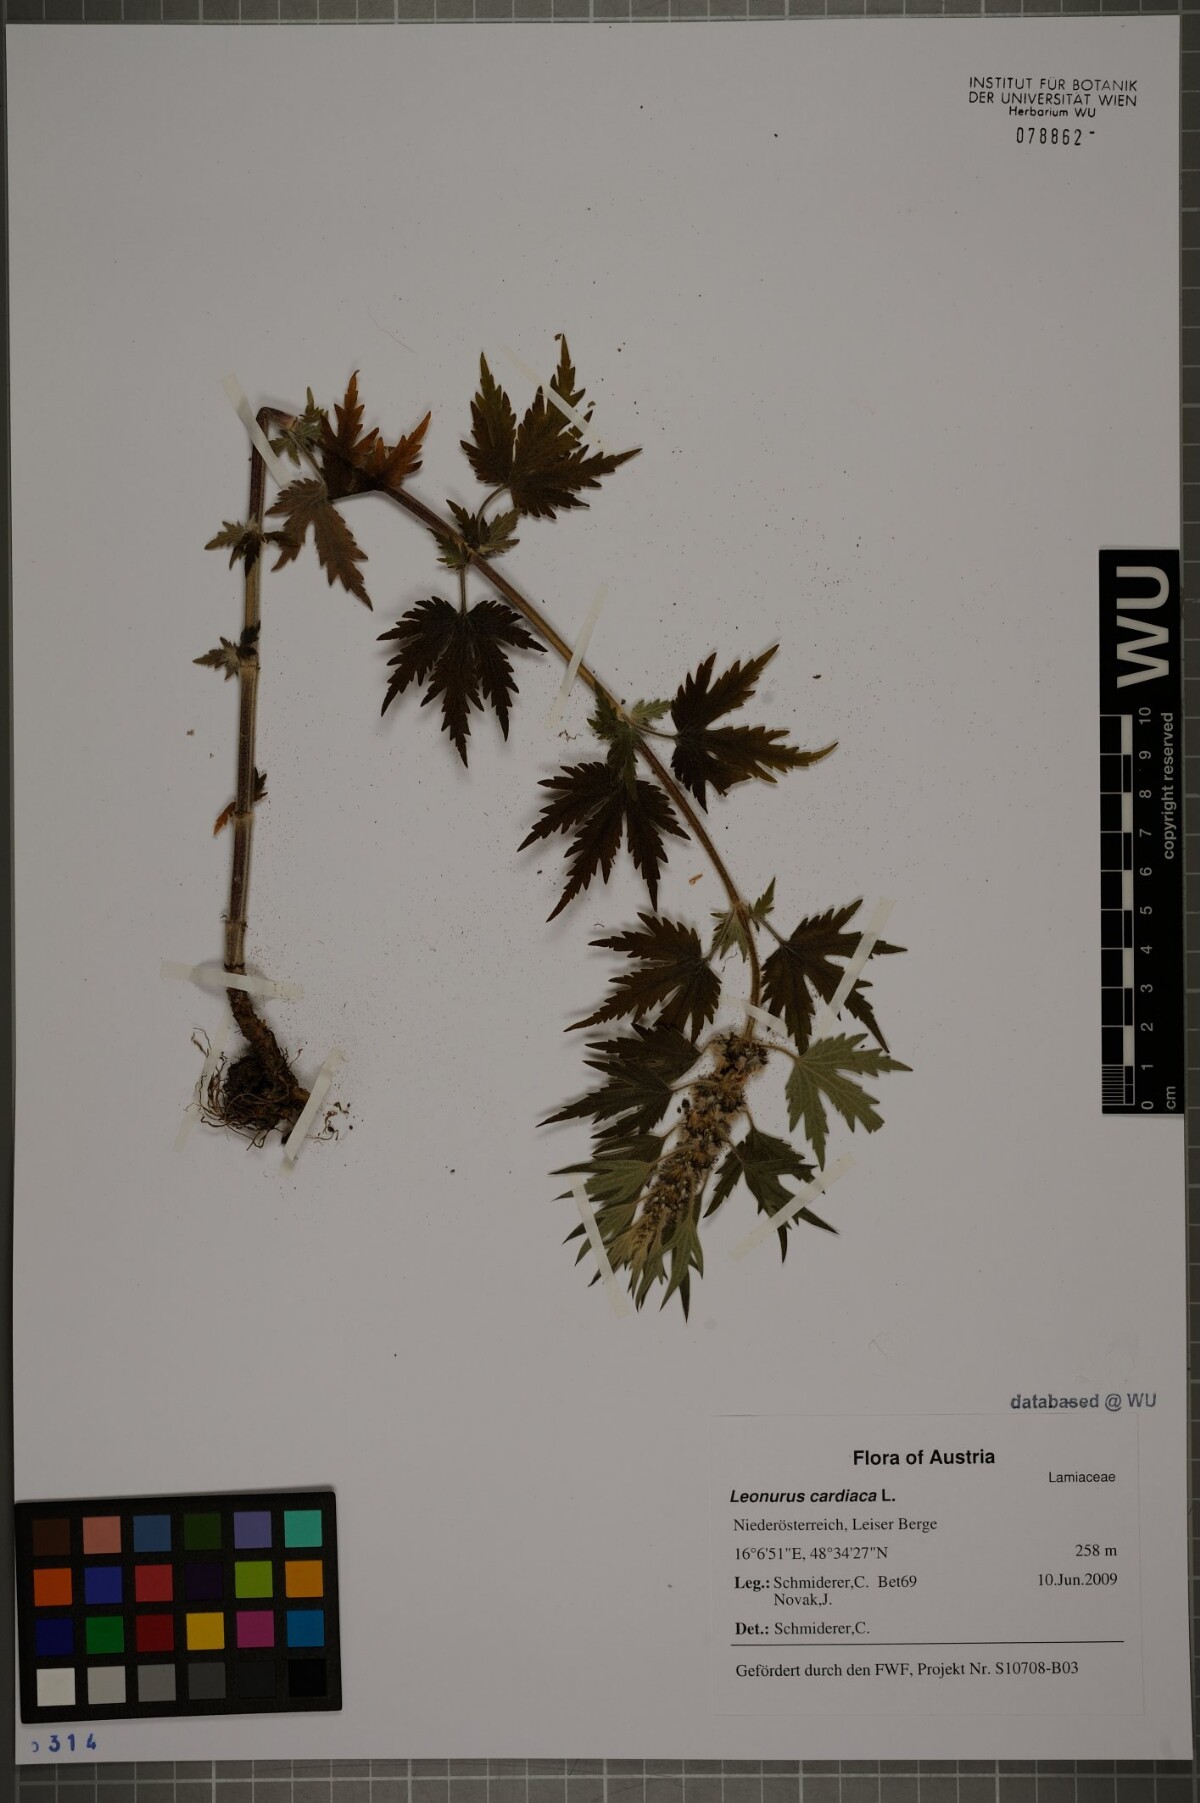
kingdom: Plantae
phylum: Tracheophyta
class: Magnoliopsida
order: Lamiales
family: Lamiaceae
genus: Leonurus
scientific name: Leonurus cardiaca
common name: Motherwort
